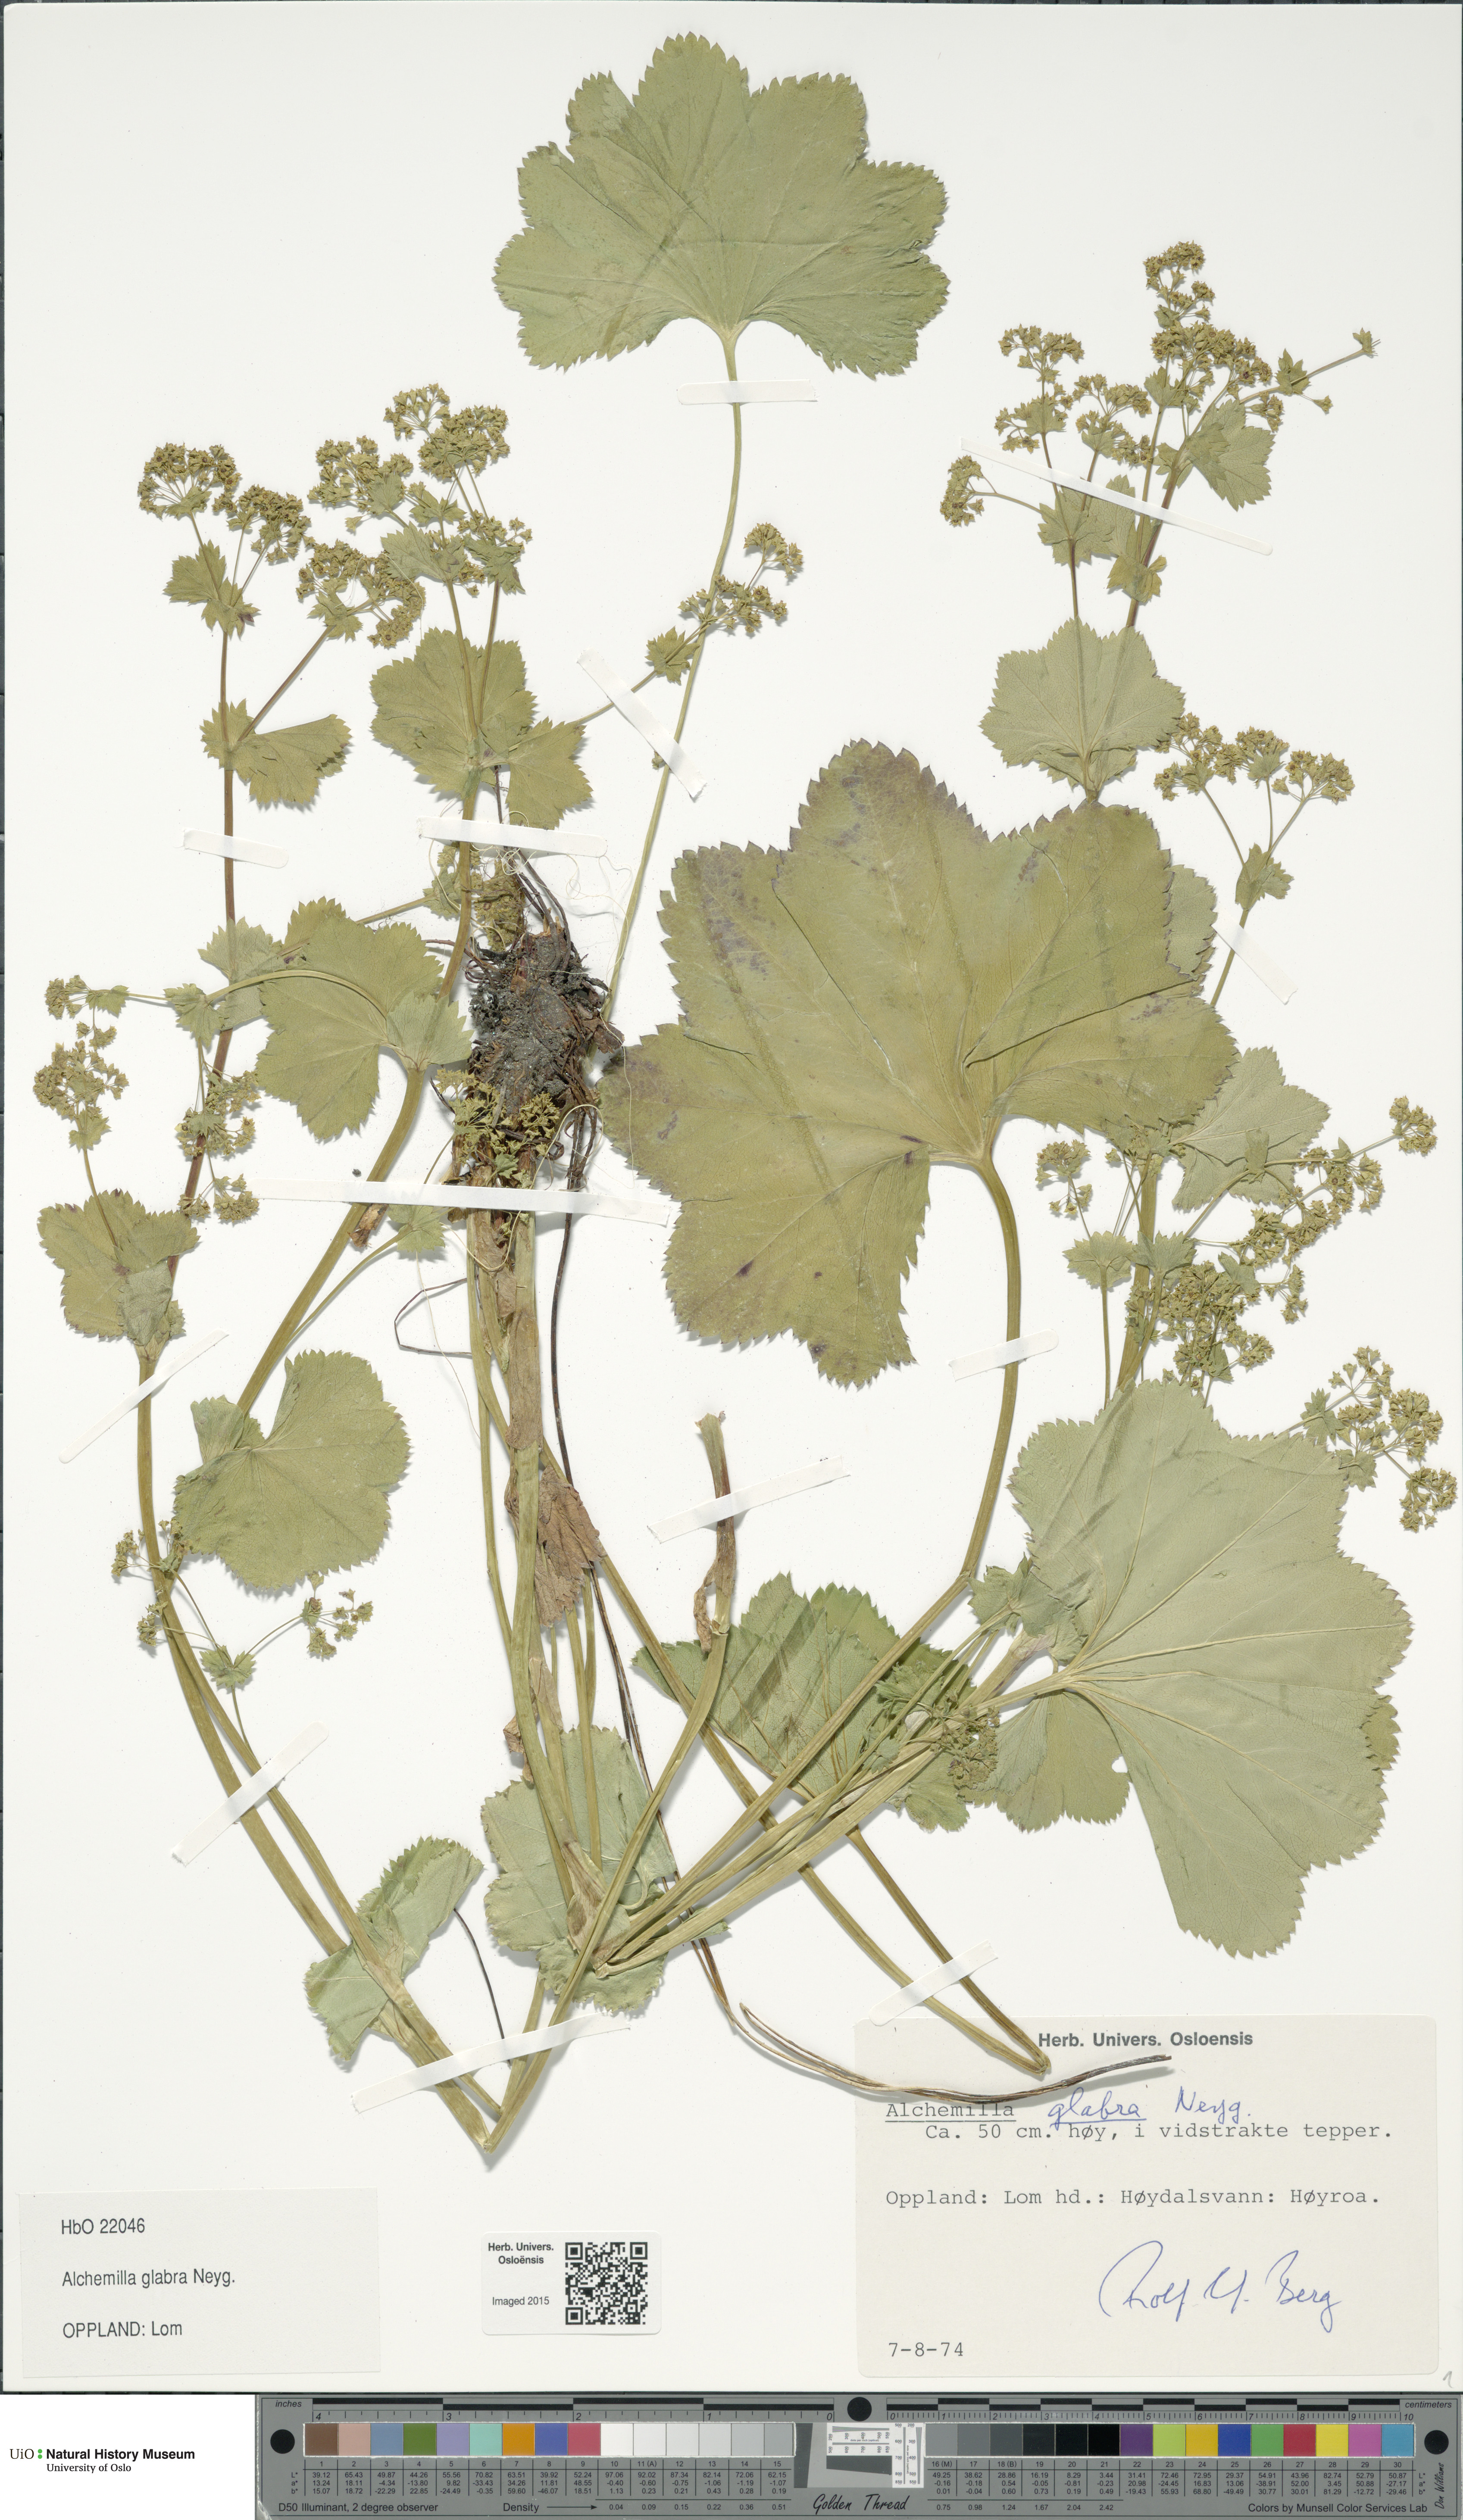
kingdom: Plantae
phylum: Tracheophyta
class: Magnoliopsida
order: Rosales
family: Rosaceae
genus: Alchemilla
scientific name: Alchemilla glabra
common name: Smooth lady's-mantle
